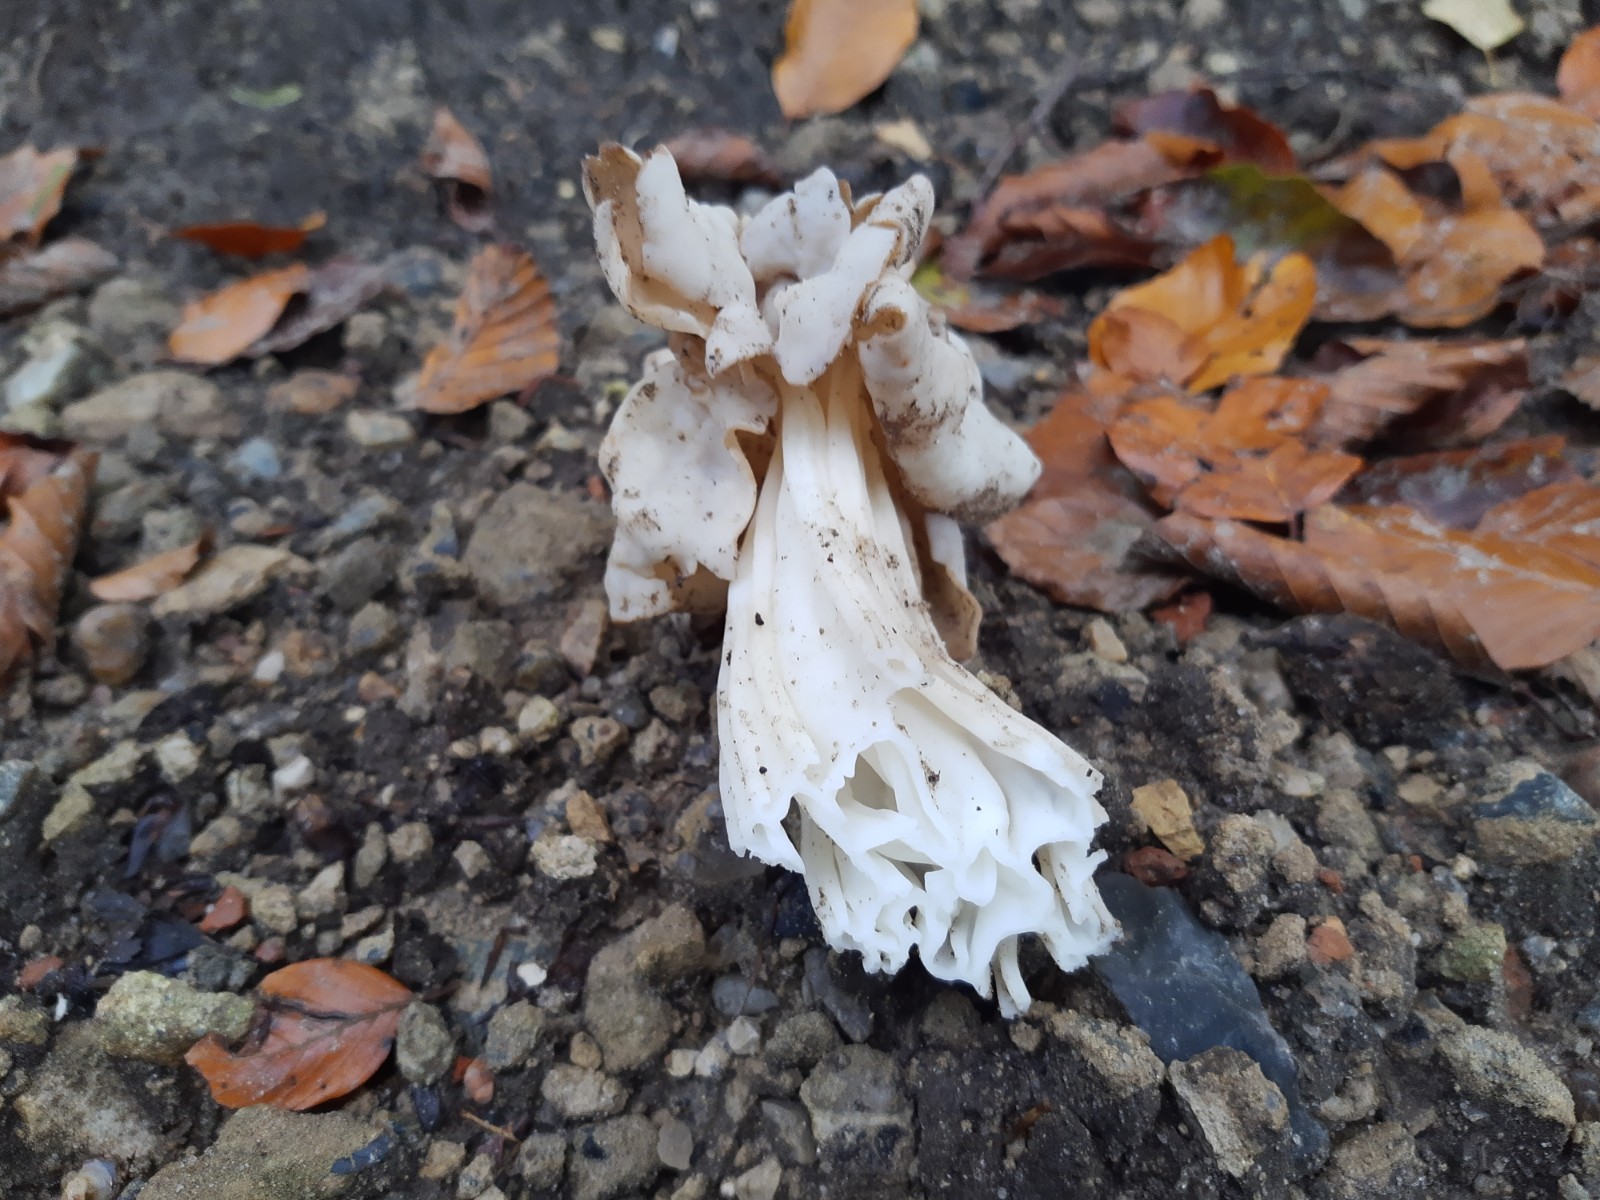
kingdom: Fungi
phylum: Ascomycota
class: Pezizomycetes
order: Pezizales
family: Helvellaceae
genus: Helvella
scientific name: Helvella crispa
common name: kruset foldhat
